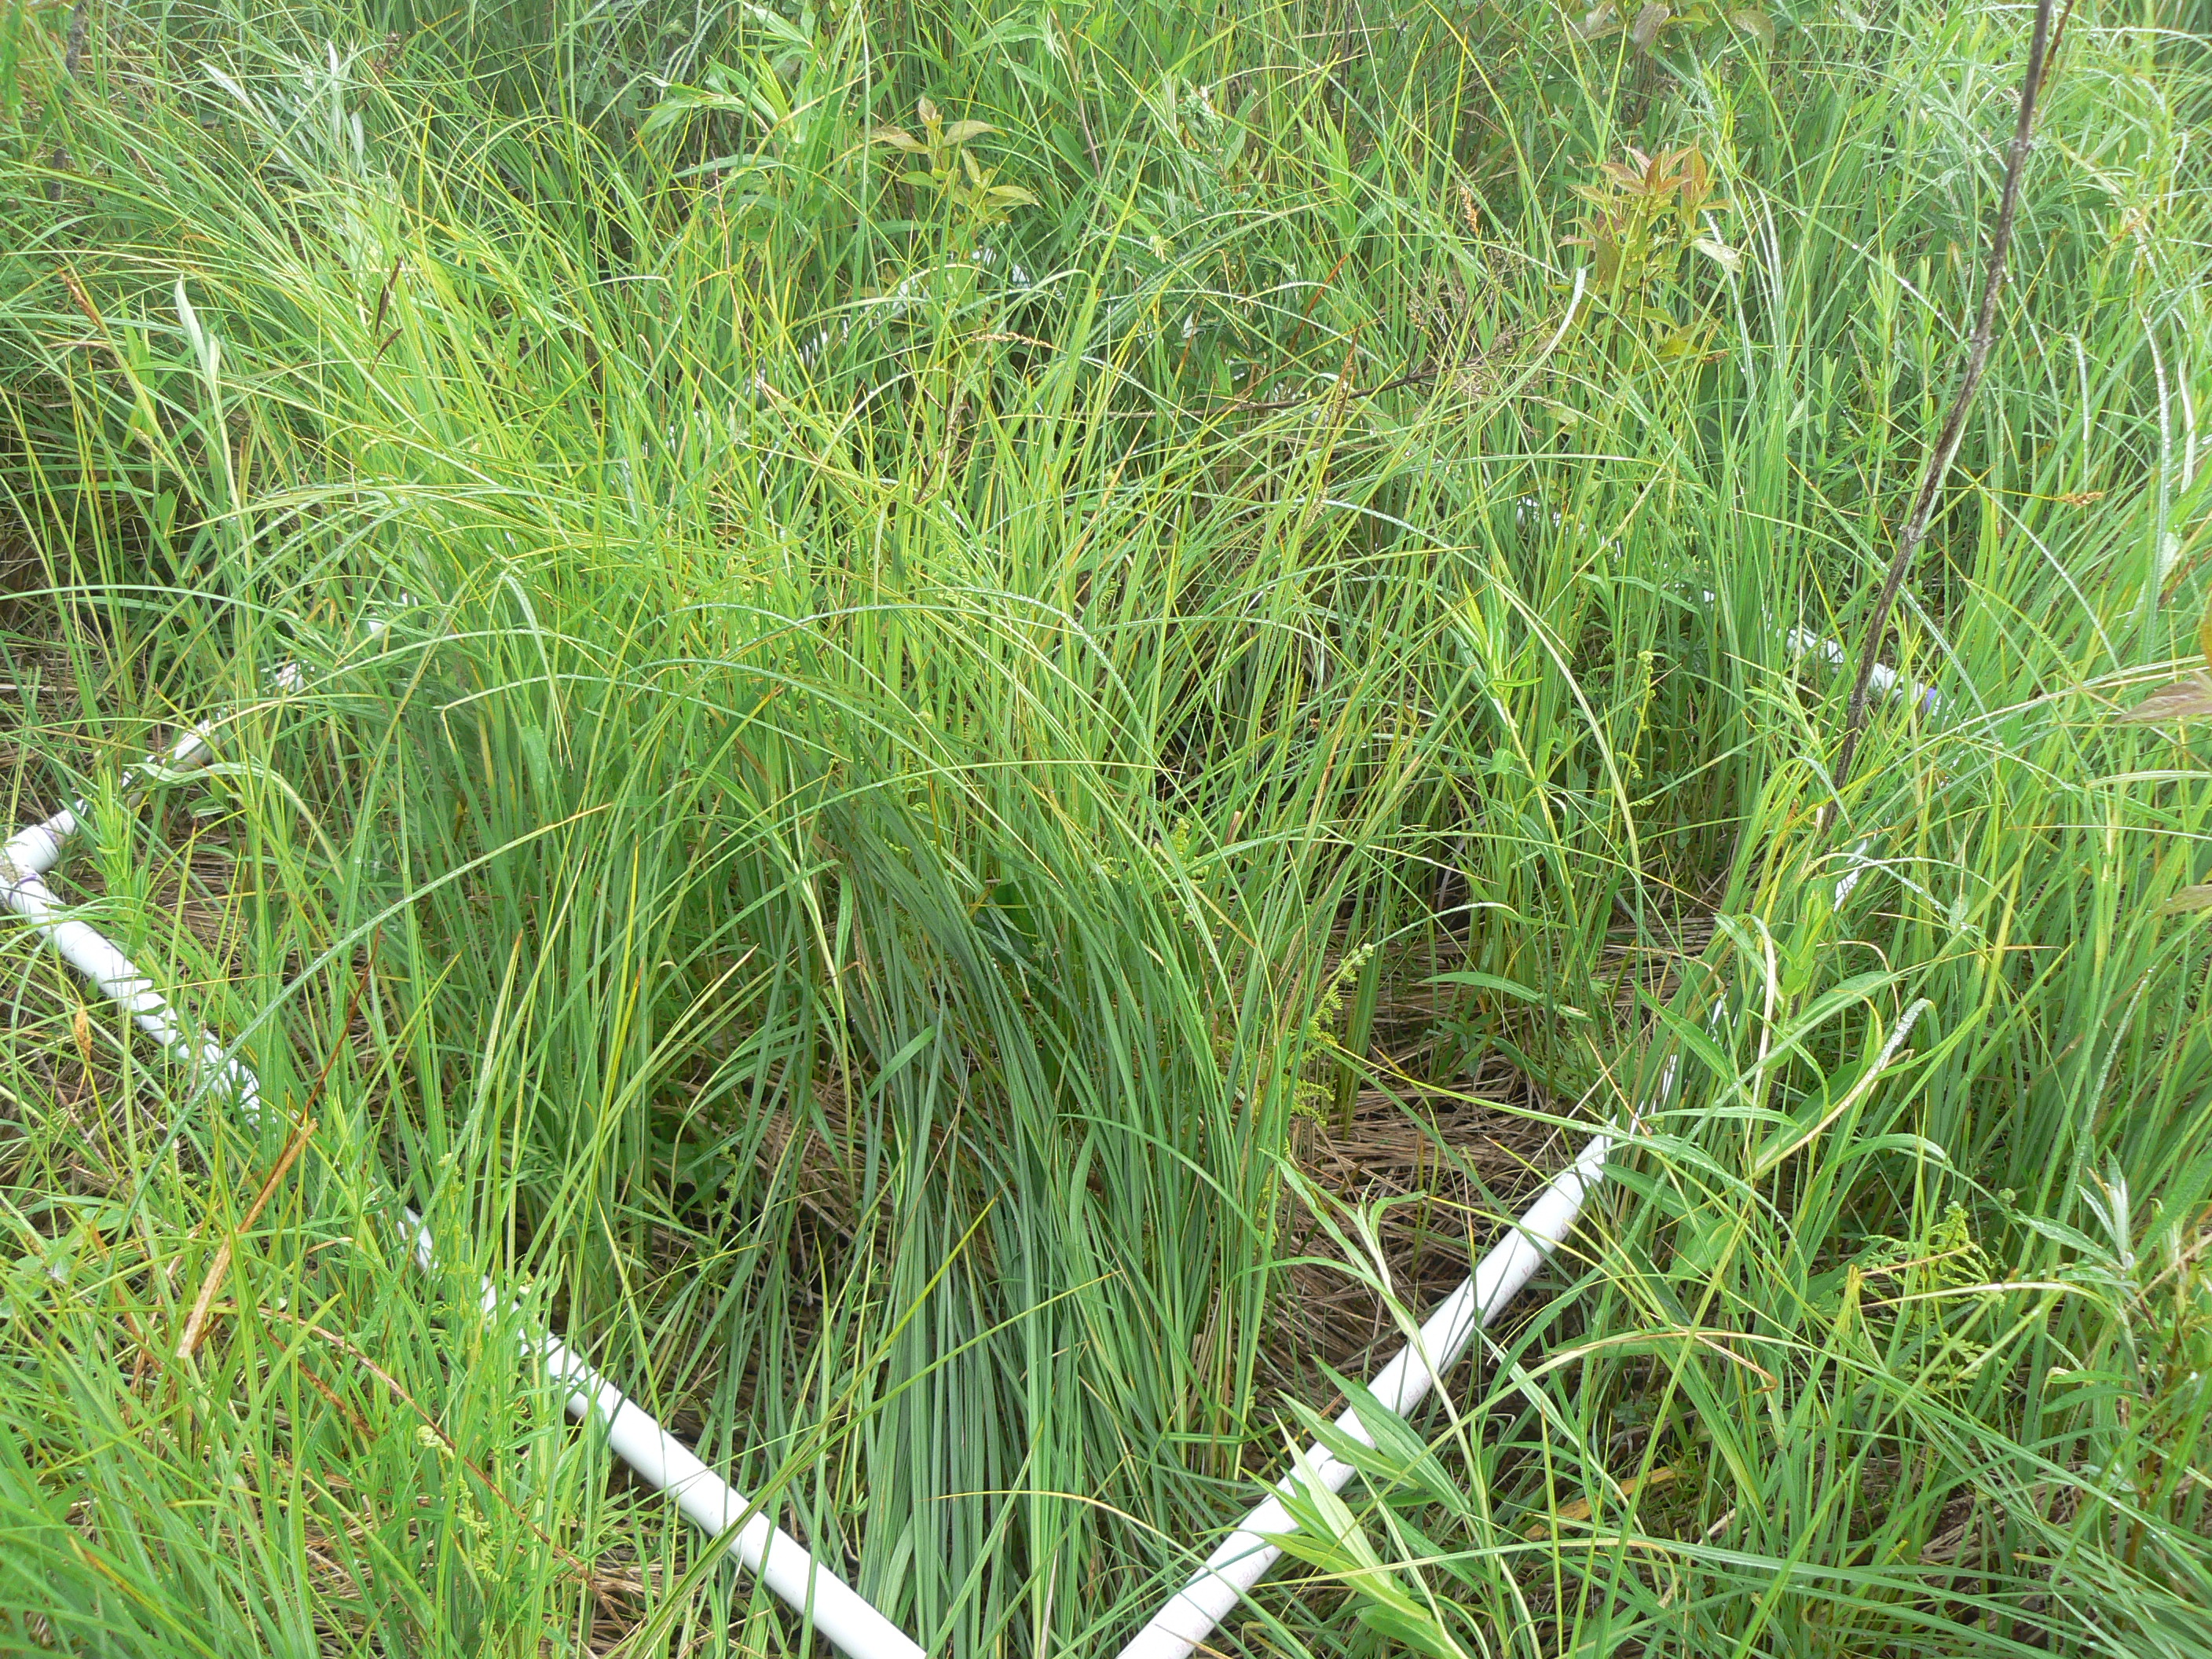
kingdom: Plantae
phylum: Tracheophyta
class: Liliopsida
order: Poales
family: Cyperaceae
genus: Carex
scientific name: Carex stricta
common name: Hummock sedge
